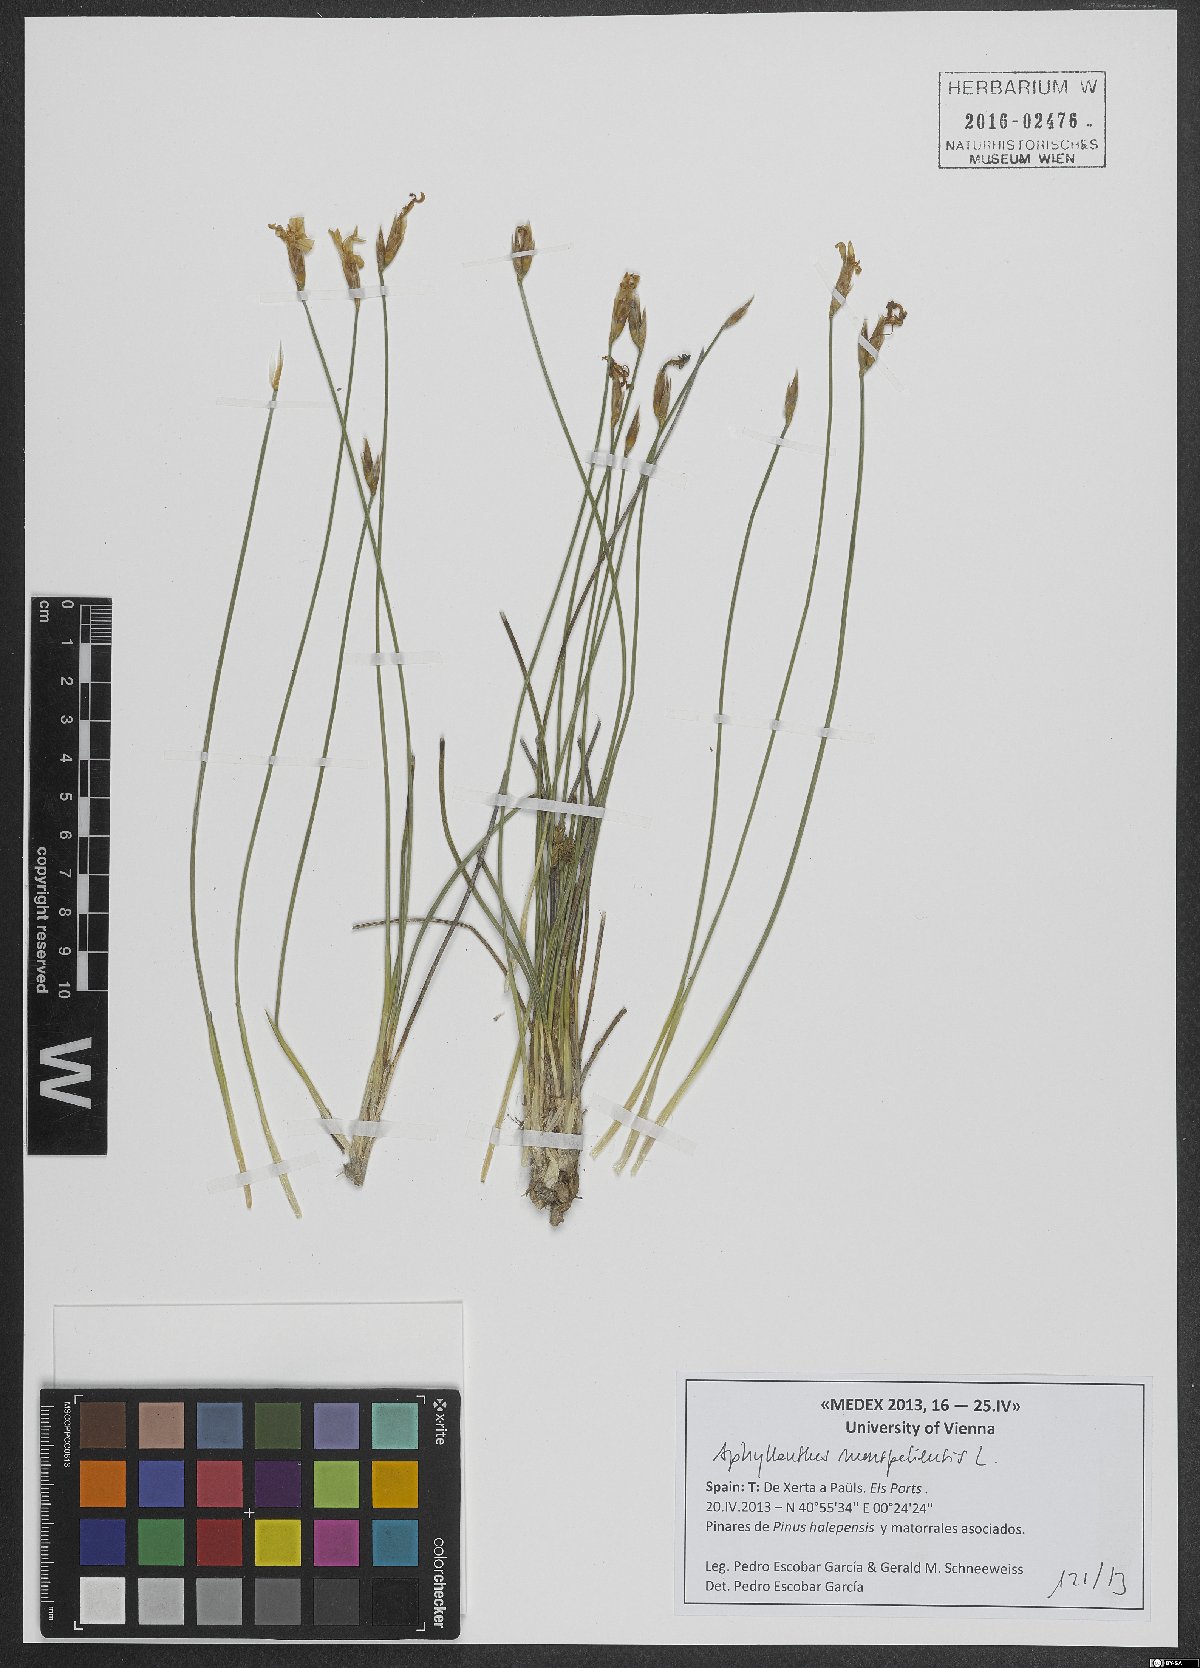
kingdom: Plantae
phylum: Tracheophyta
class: Liliopsida
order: Asparagales
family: Asparagaceae
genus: Aphyllanthes
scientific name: Aphyllanthes monspeliensis
